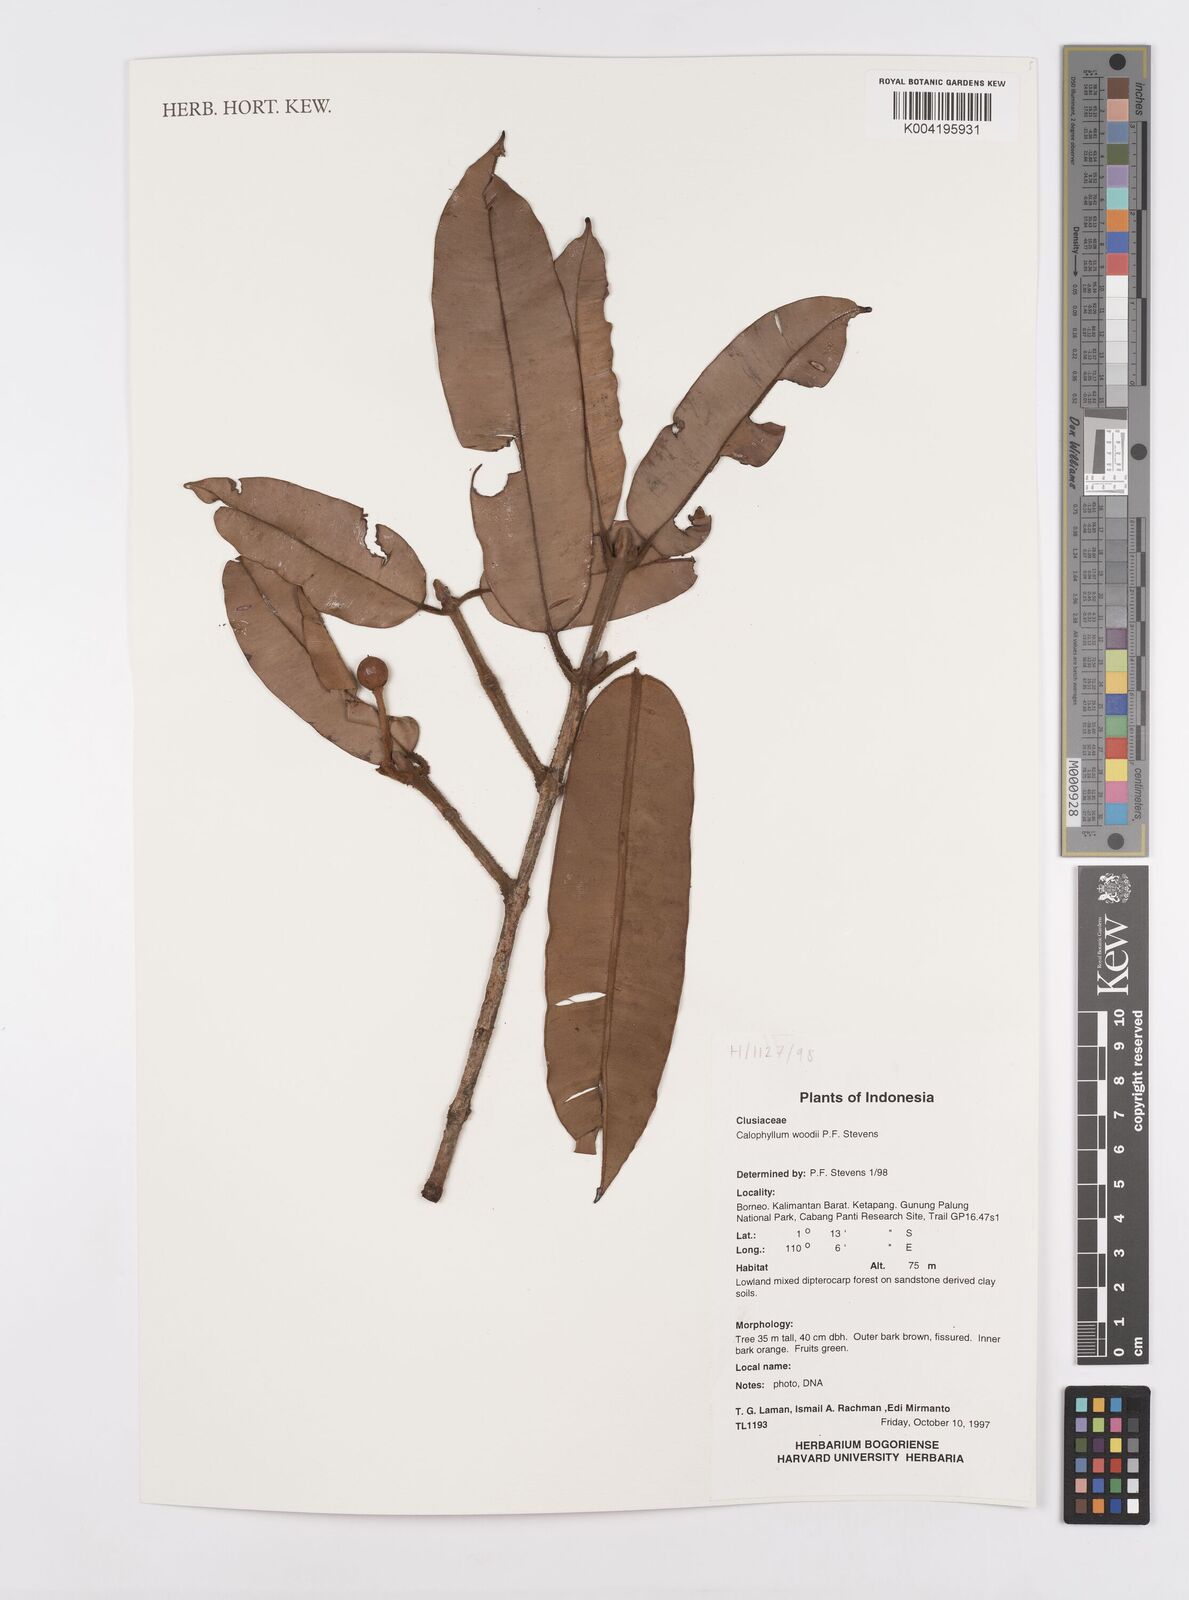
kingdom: Plantae
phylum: Tracheophyta
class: Magnoliopsida
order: Malpighiales
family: Calophyllaceae
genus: Calophyllum
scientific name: Calophyllum woodii
